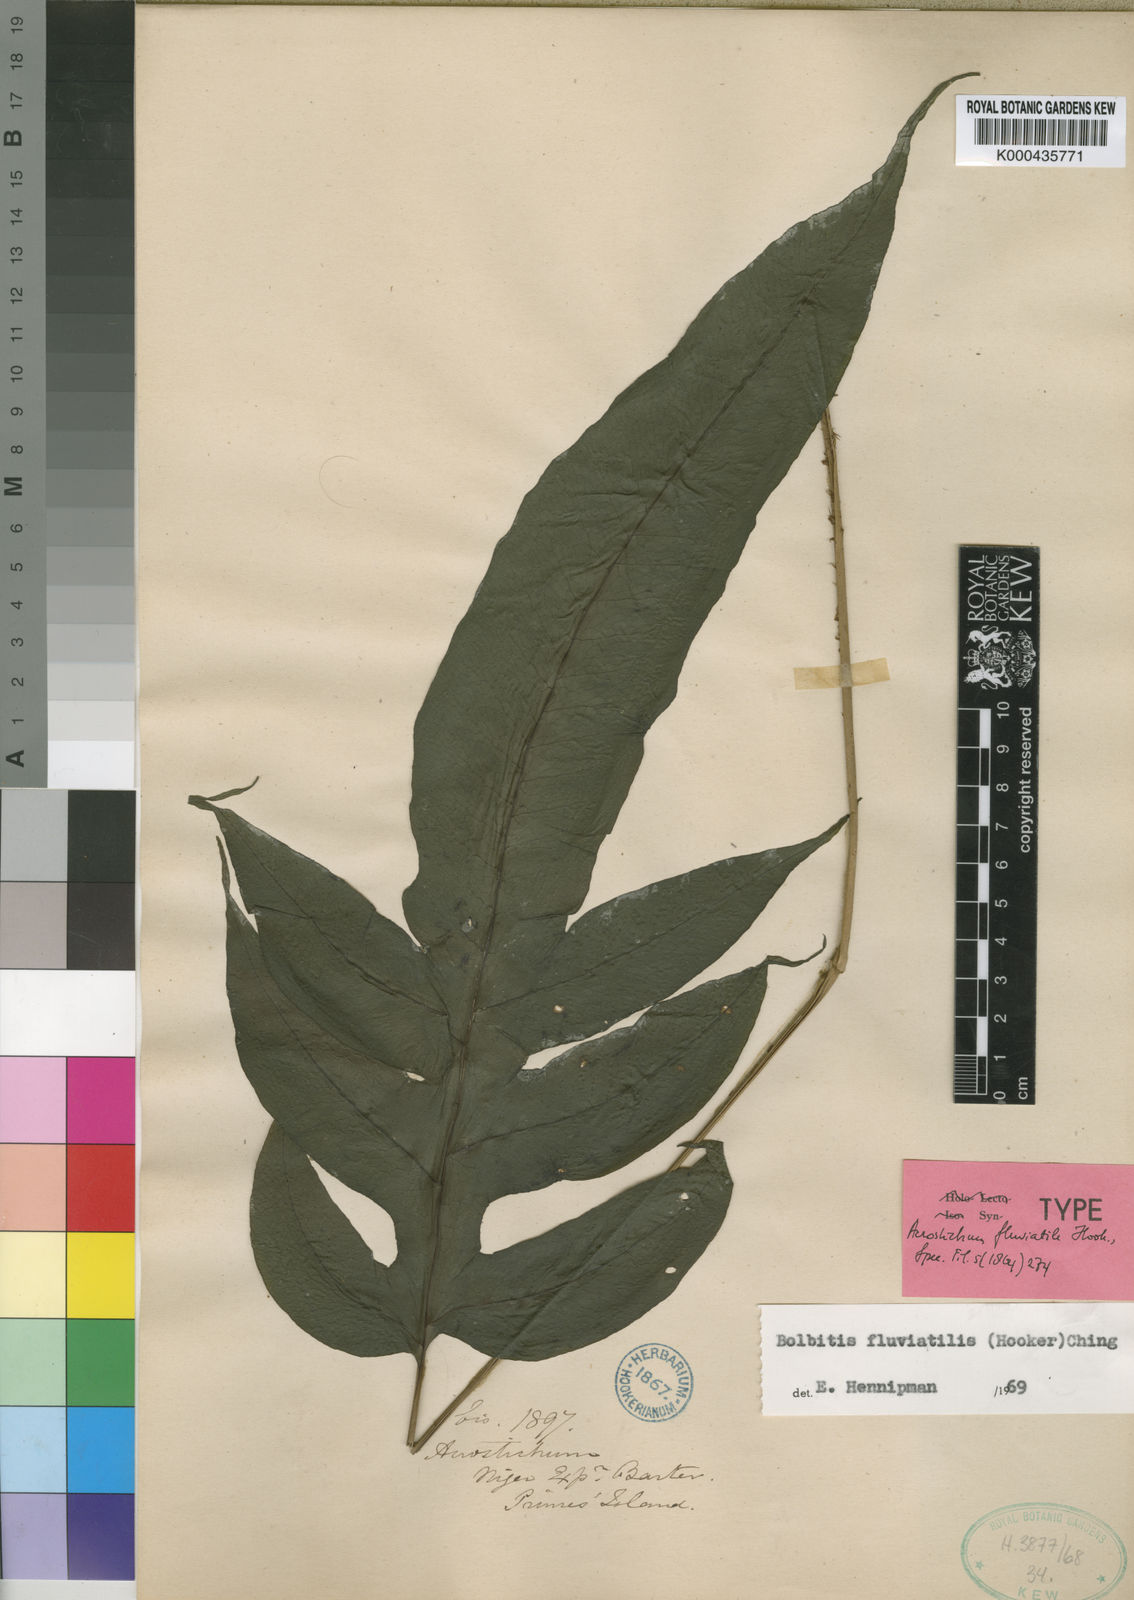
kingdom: Plantae
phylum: Tracheophyta
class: Polypodiopsida
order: Polypodiales
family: Dryopteridaceae
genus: Bolbitis
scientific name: Bolbitis fluviatilis
